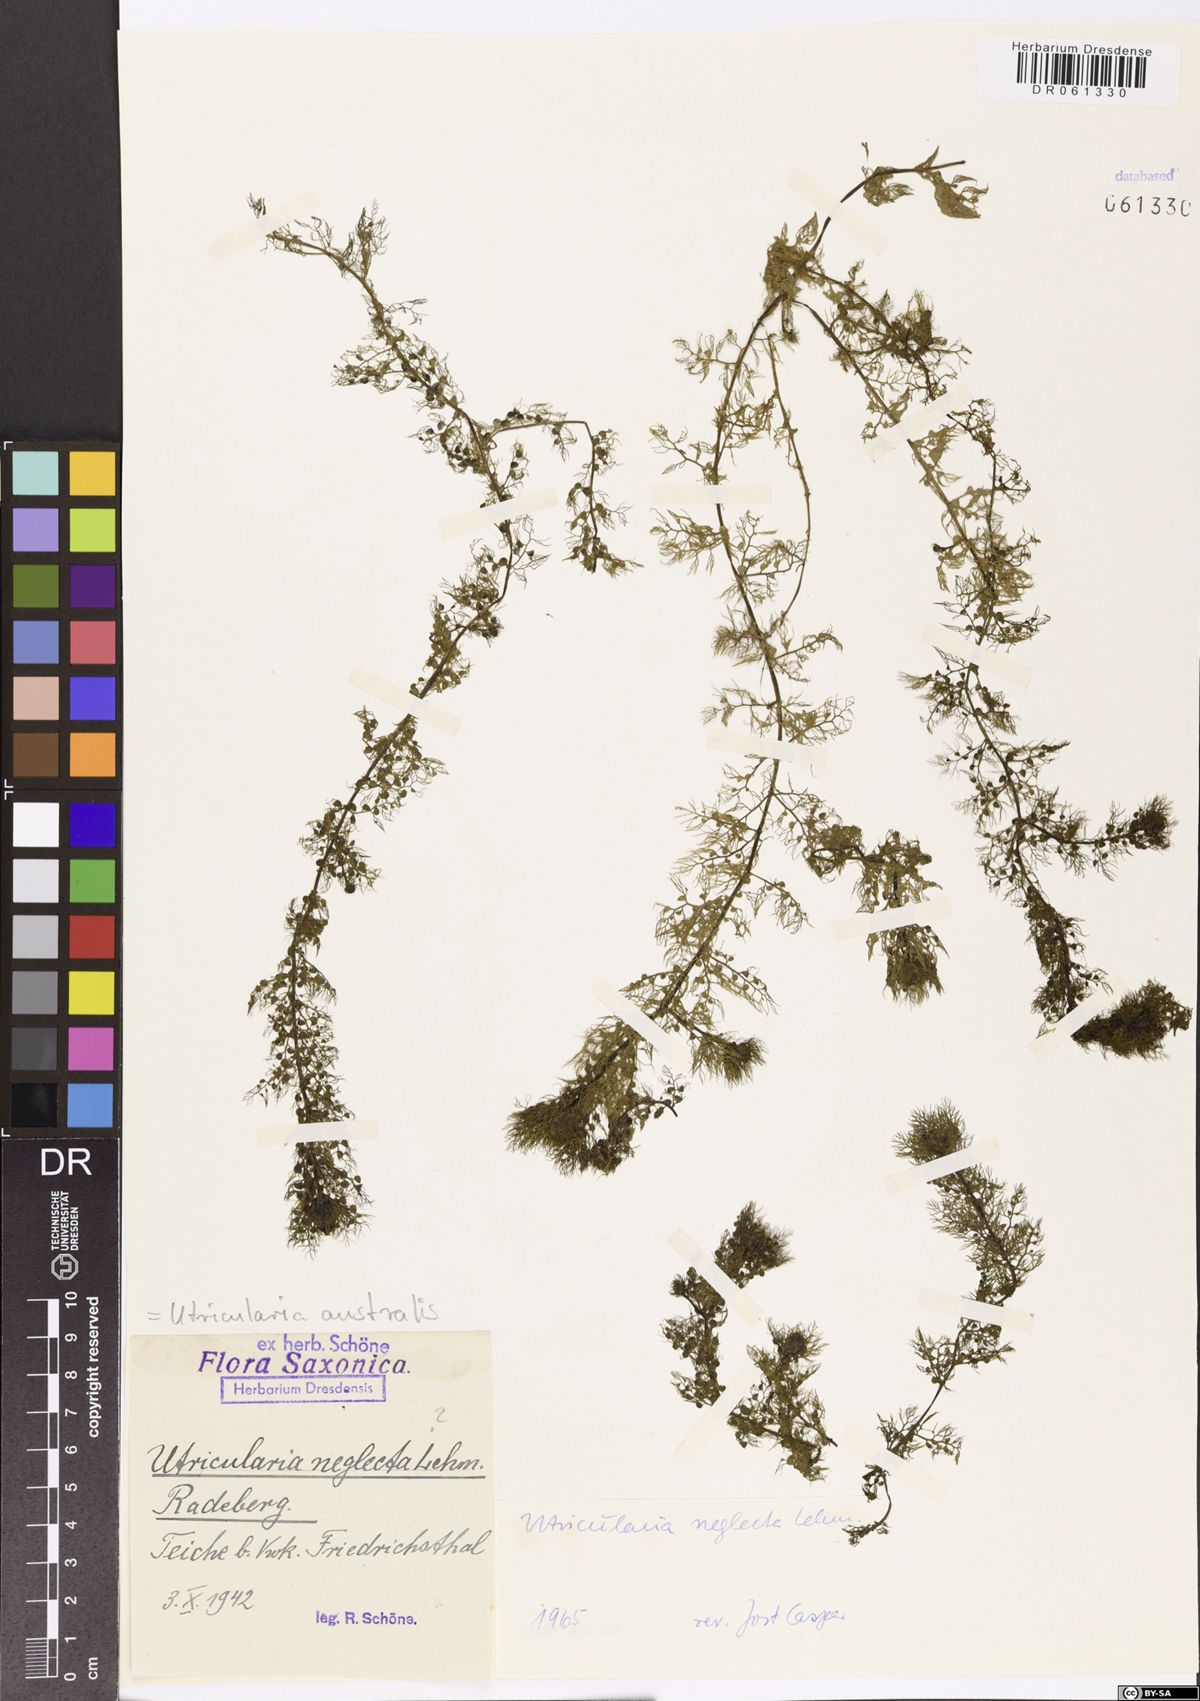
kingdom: Plantae
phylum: Tracheophyta
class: Magnoliopsida
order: Lamiales
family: Lentibulariaceae
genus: Utricularia
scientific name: Utricularia australis
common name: Bladderwort
